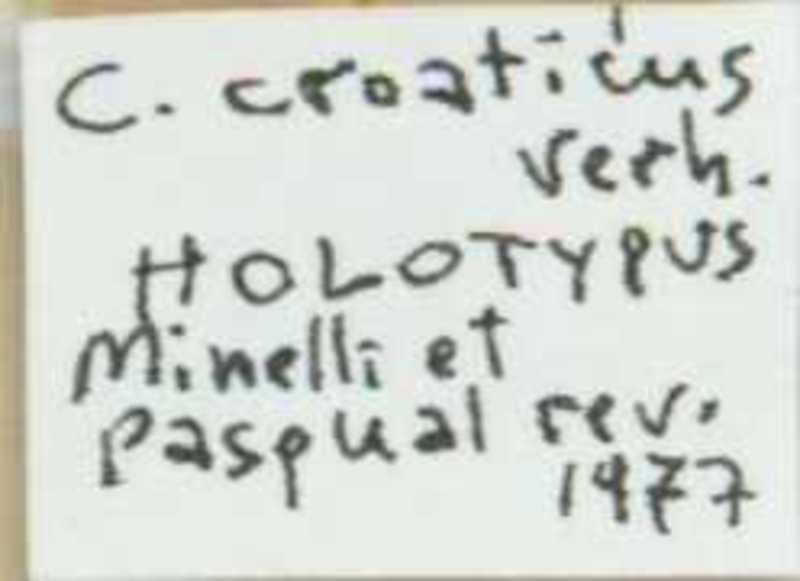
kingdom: Animalia
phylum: Arthropoda
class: Chilopoda
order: Scolopendromorpha
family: Cryptopidae
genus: Cryptops
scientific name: Cryptops croaticus
